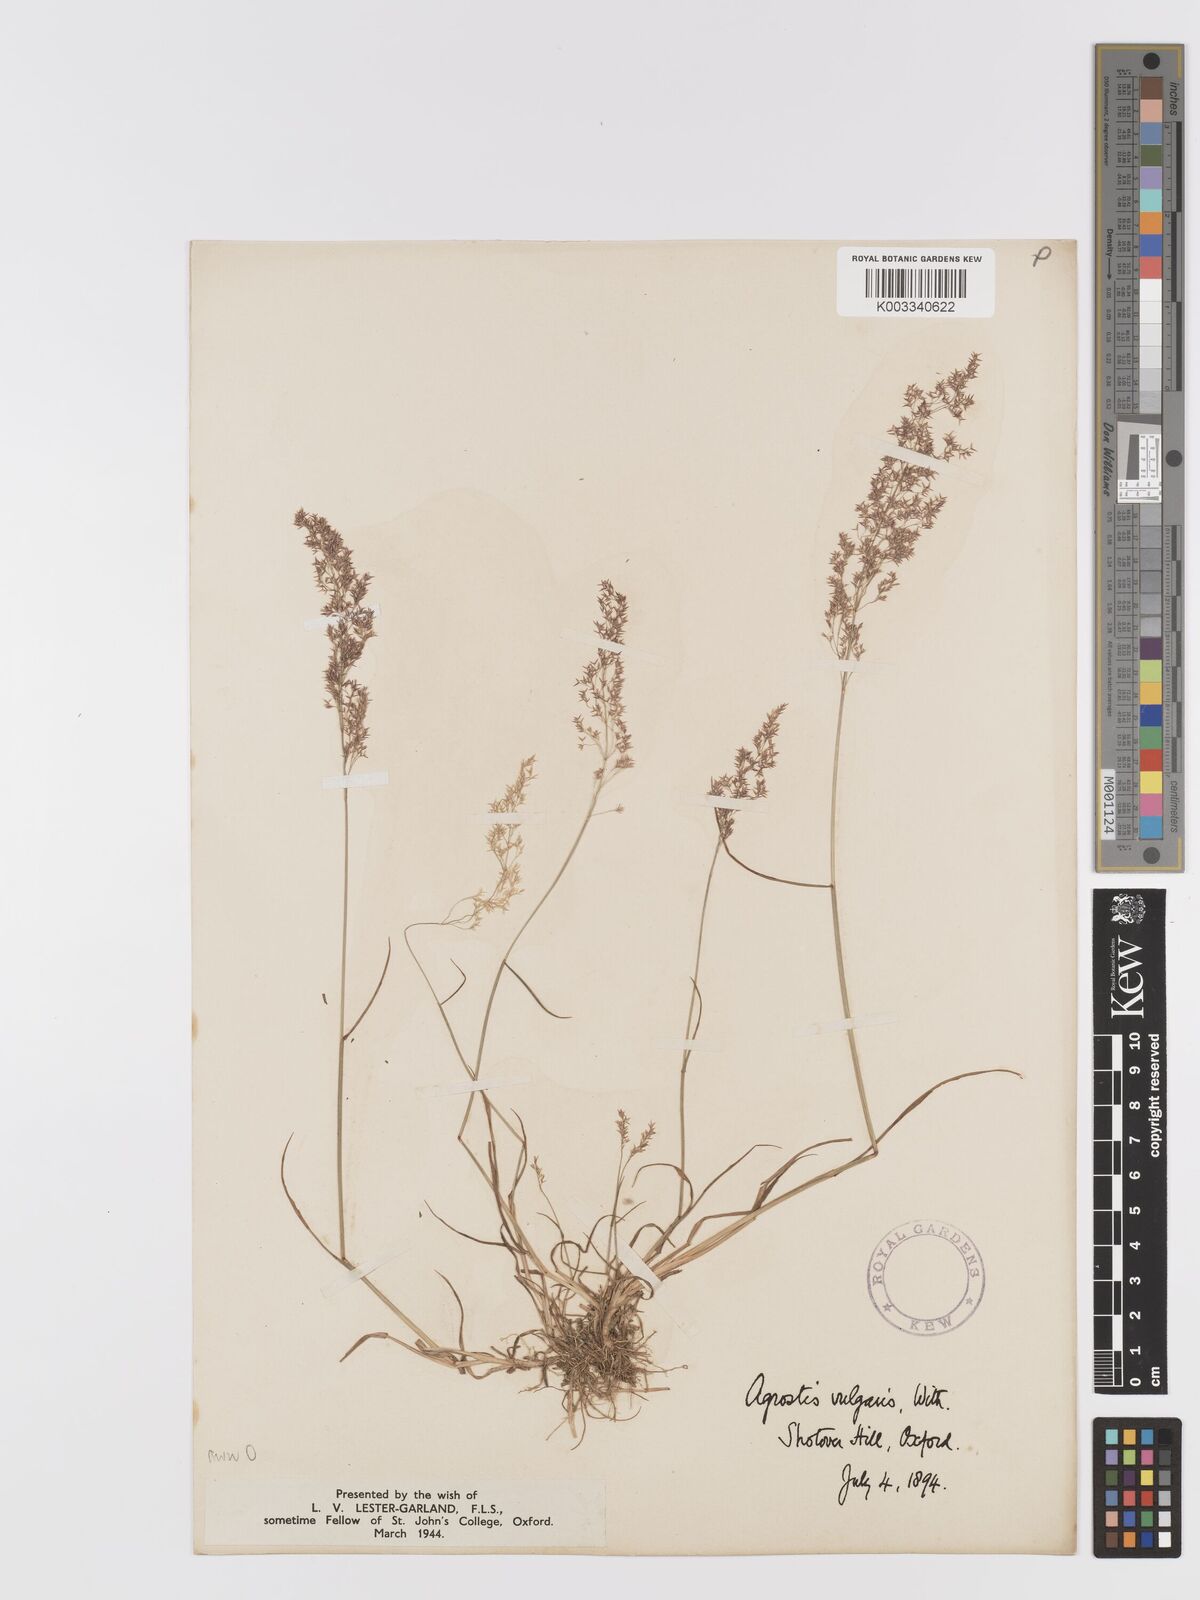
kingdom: Plantae
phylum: Tracheophyta
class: Liliopsida
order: Poales
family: Poaceae
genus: Agrostis
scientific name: Agrostis capillaris
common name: Colonial bentgrass
